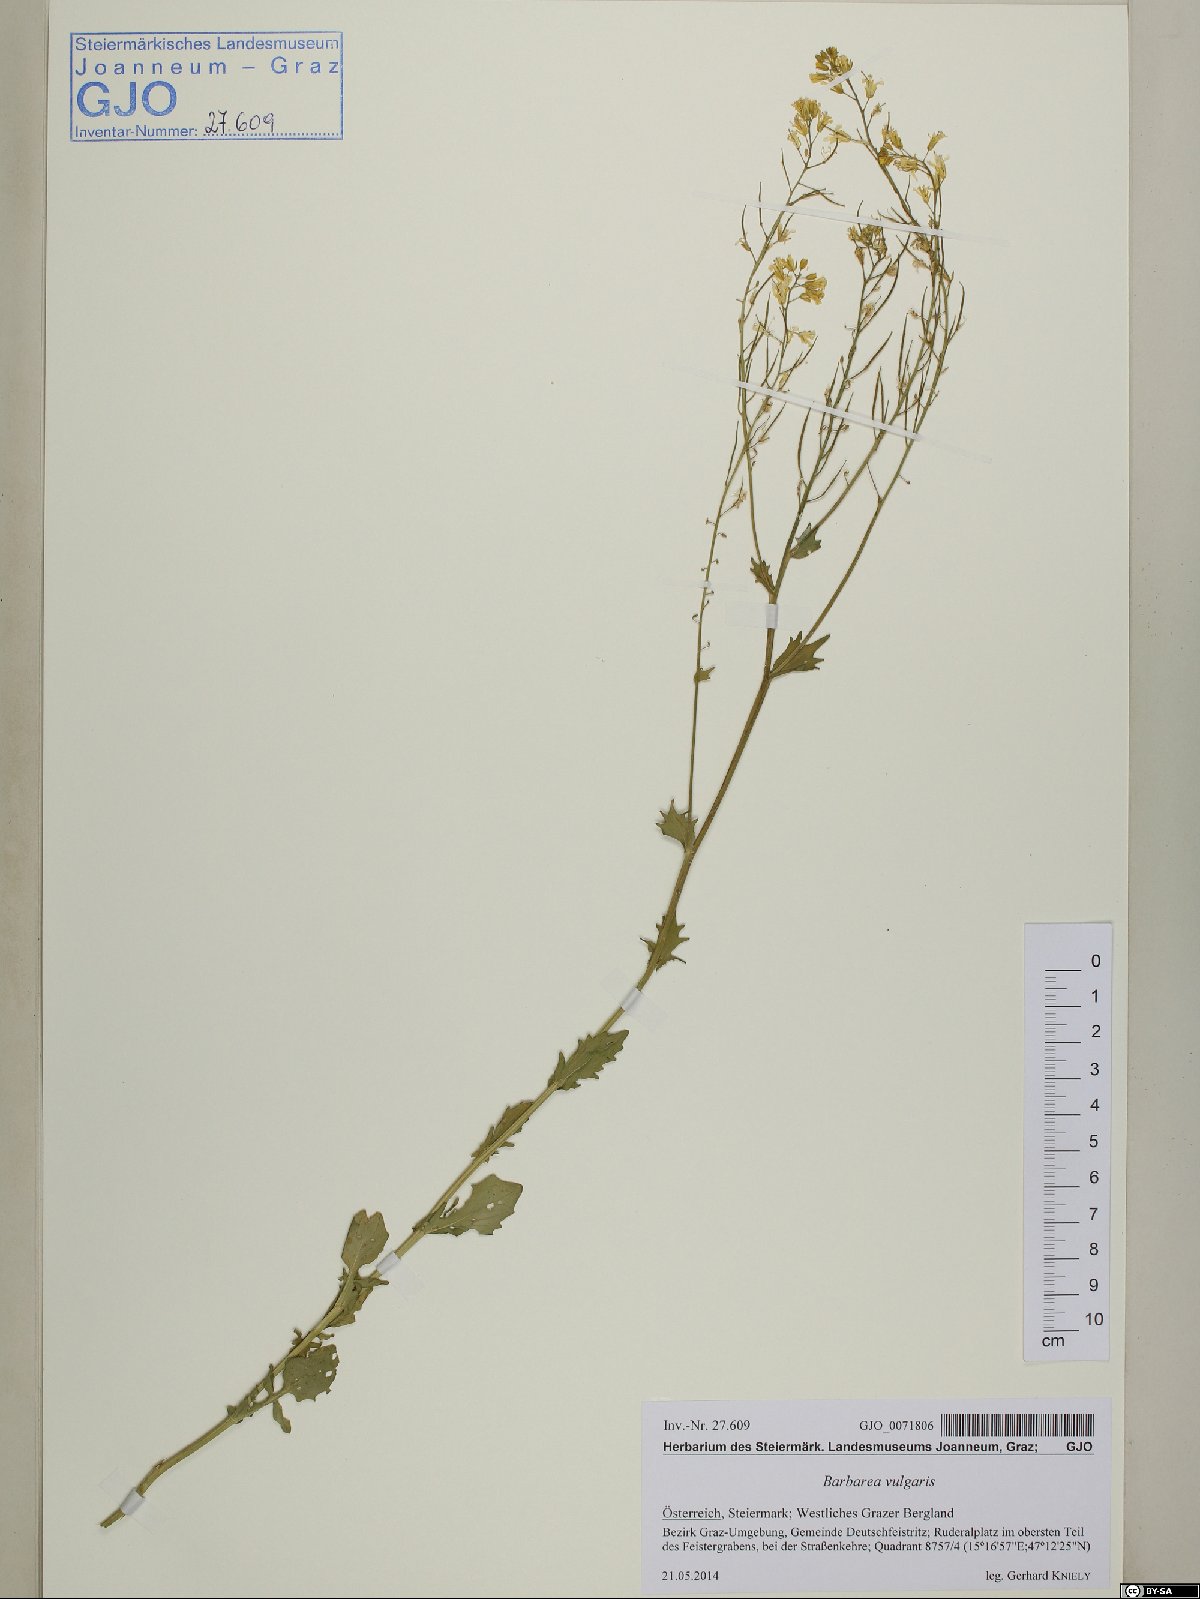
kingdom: Plantae
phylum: Tracheophyta
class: Magnoliopsida
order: Brassicales
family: Brassicaceae
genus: Barbarea
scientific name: Barbarea vulgaris
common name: Cressy-greens
